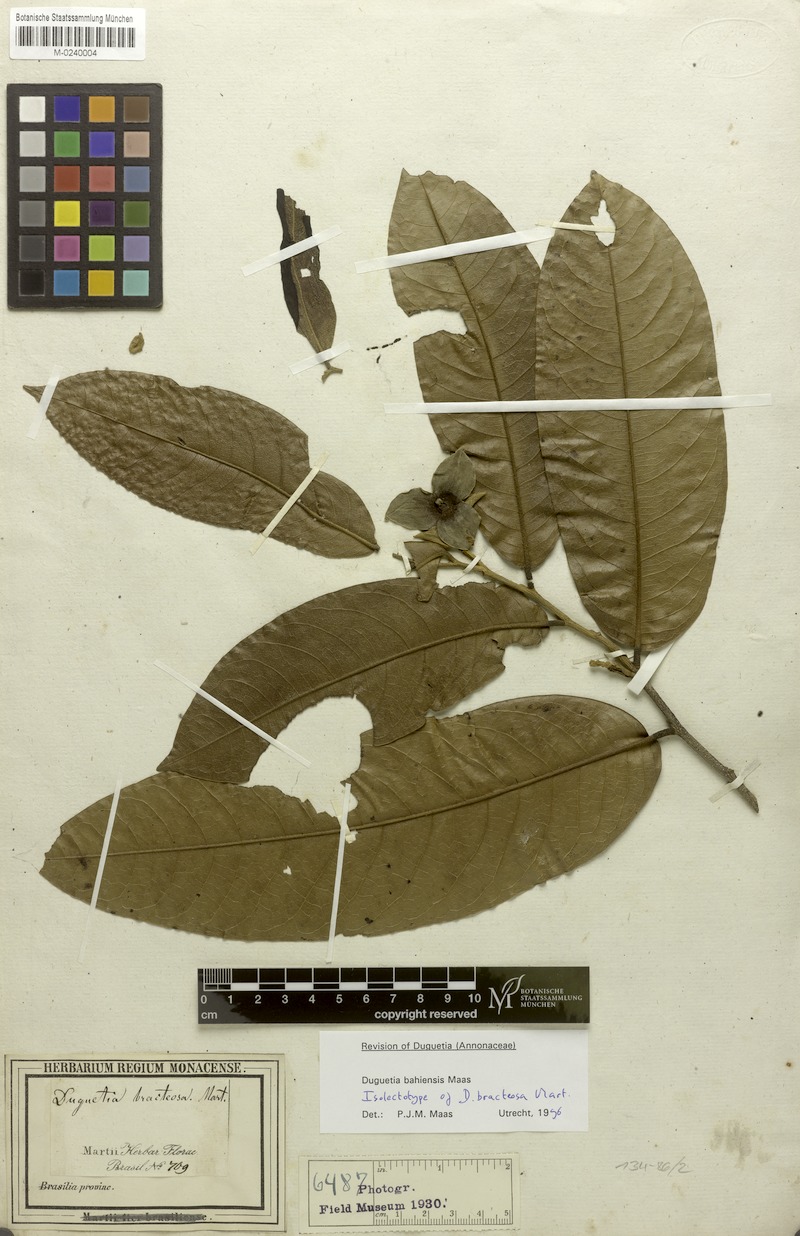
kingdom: Plantae
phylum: Tracheophyta
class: Magnoliopsida
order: Magnoliales
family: Annonaceae
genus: Duguetia
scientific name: Duguetia bahiensis
